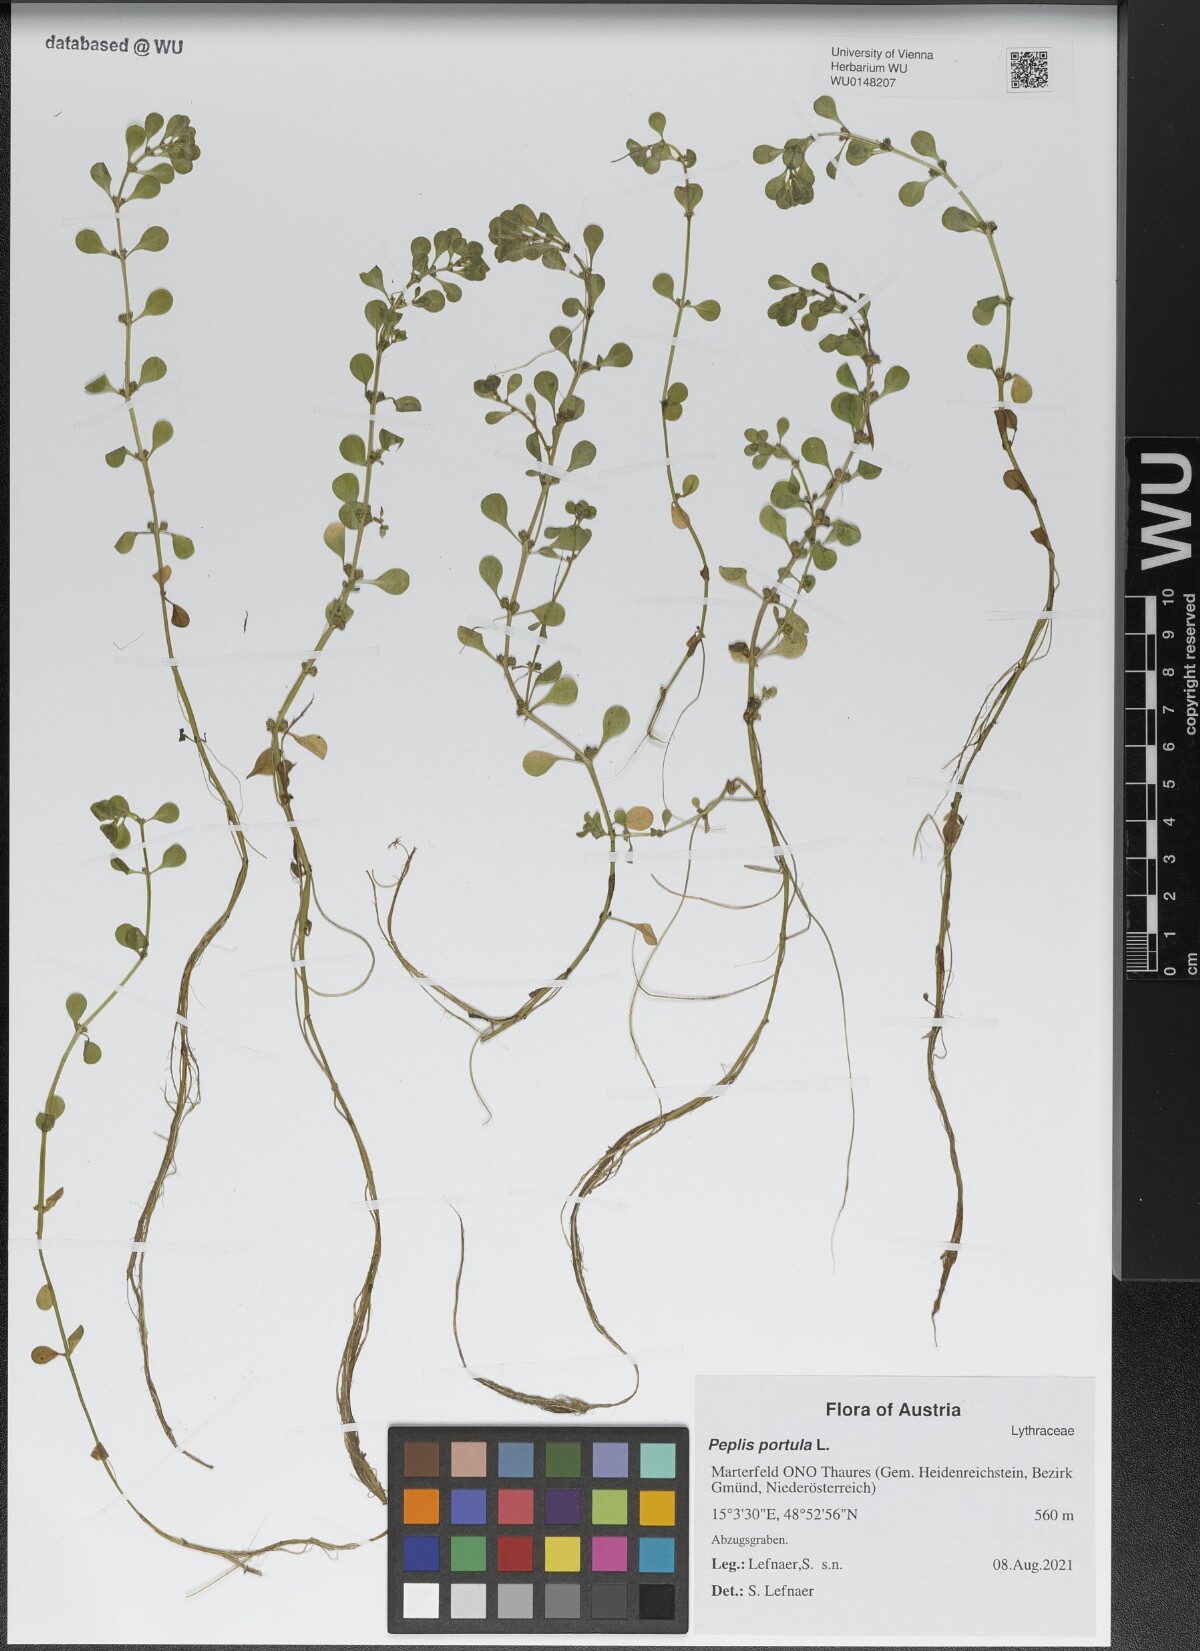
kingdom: Plantae
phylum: Tracheophyta
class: Magnoliopsida
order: Myrtales
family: Lythraceae
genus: Lythrum
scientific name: Lythrum portula
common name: Water purslane
